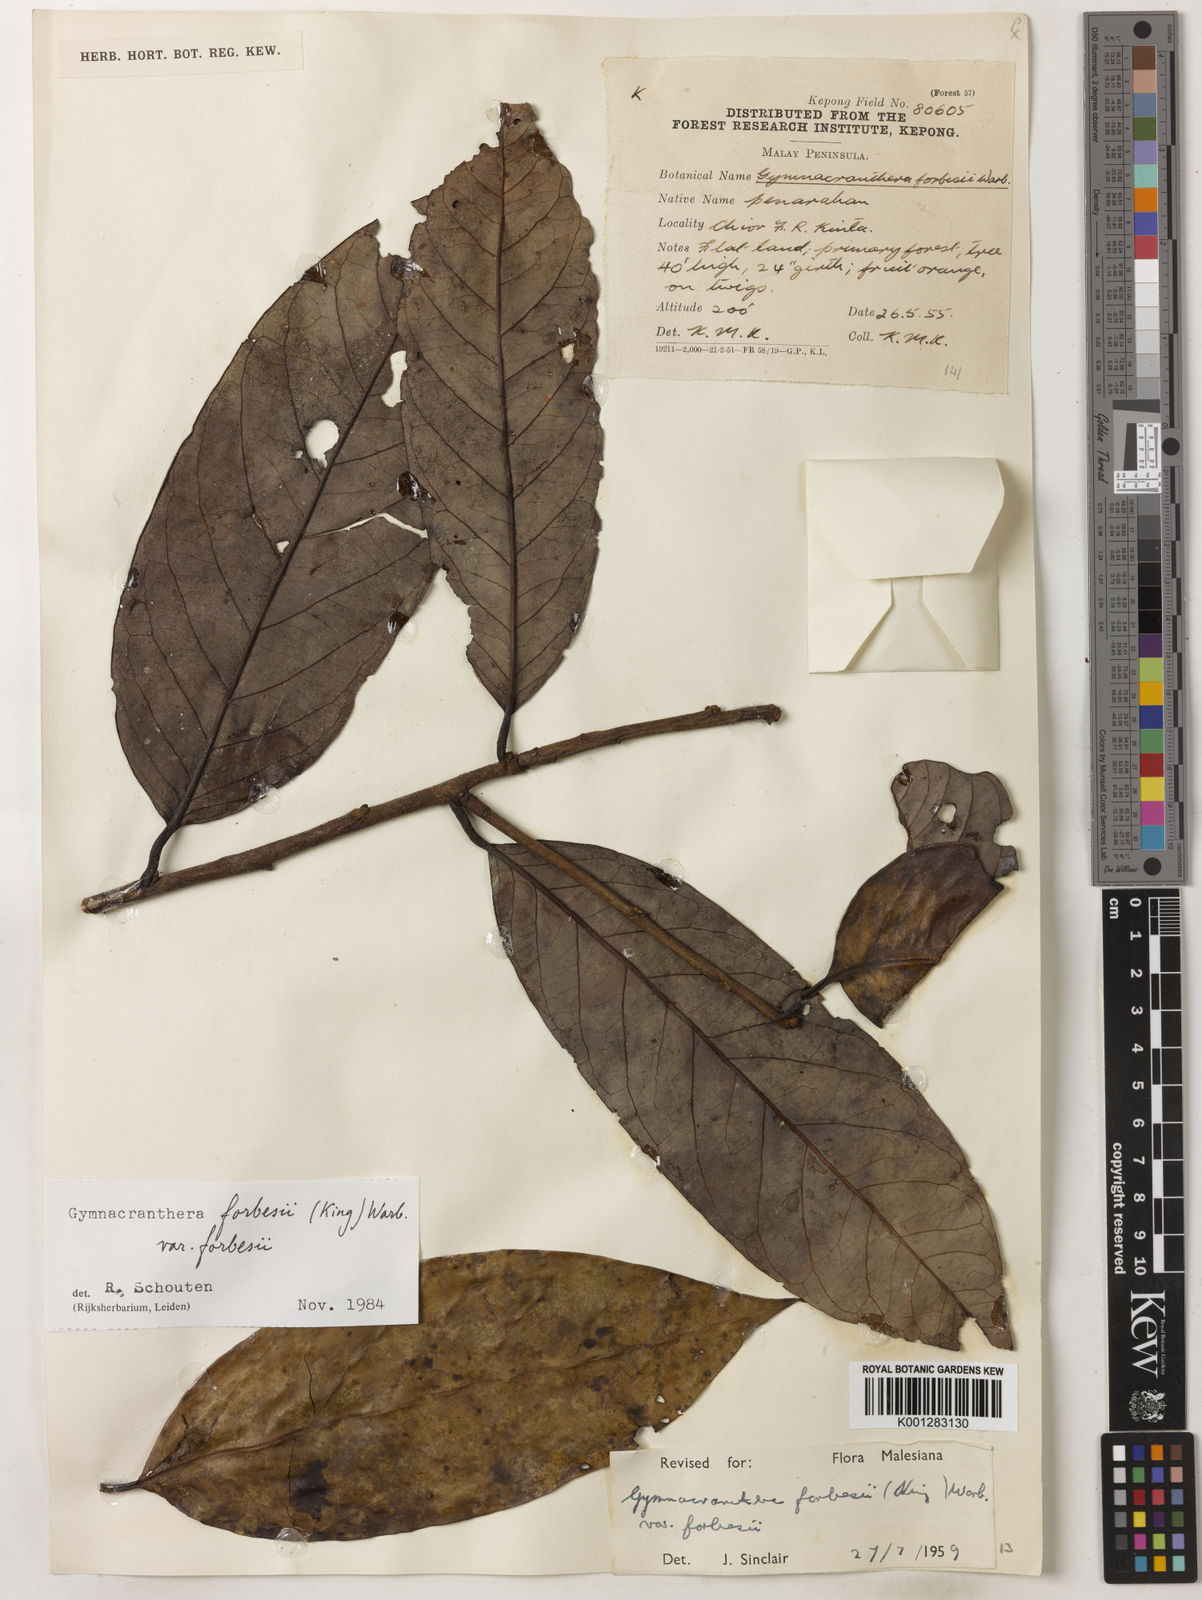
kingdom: Plantae
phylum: Tracheophyta
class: Magnoliopsida
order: Magnoliales
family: Myristicaceae
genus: Gymnacranthera
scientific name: Gymnacranthera forbesii
